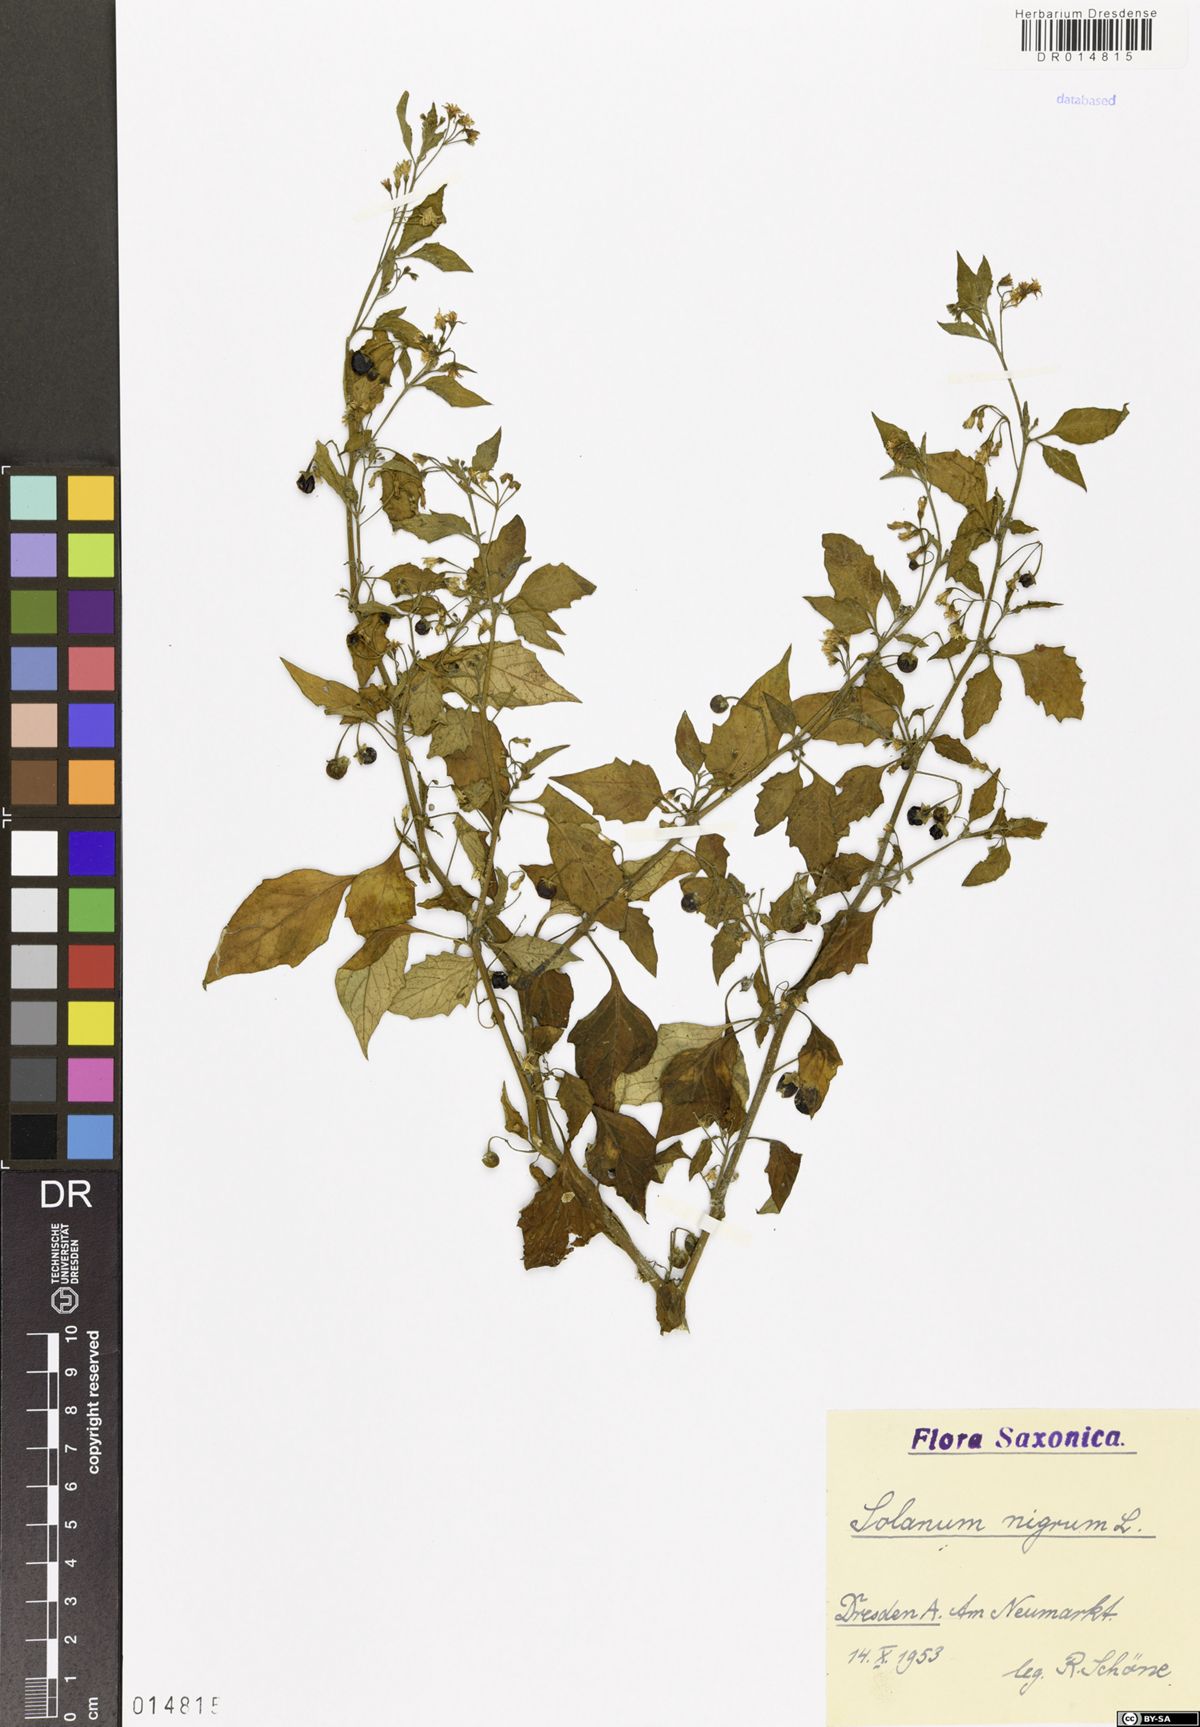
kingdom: Plantae
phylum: Tracheophyta
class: Magnoliopsida
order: Solanales
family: Solanaceae
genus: Solanum
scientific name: Solanum nigrum
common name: Black nightshade
